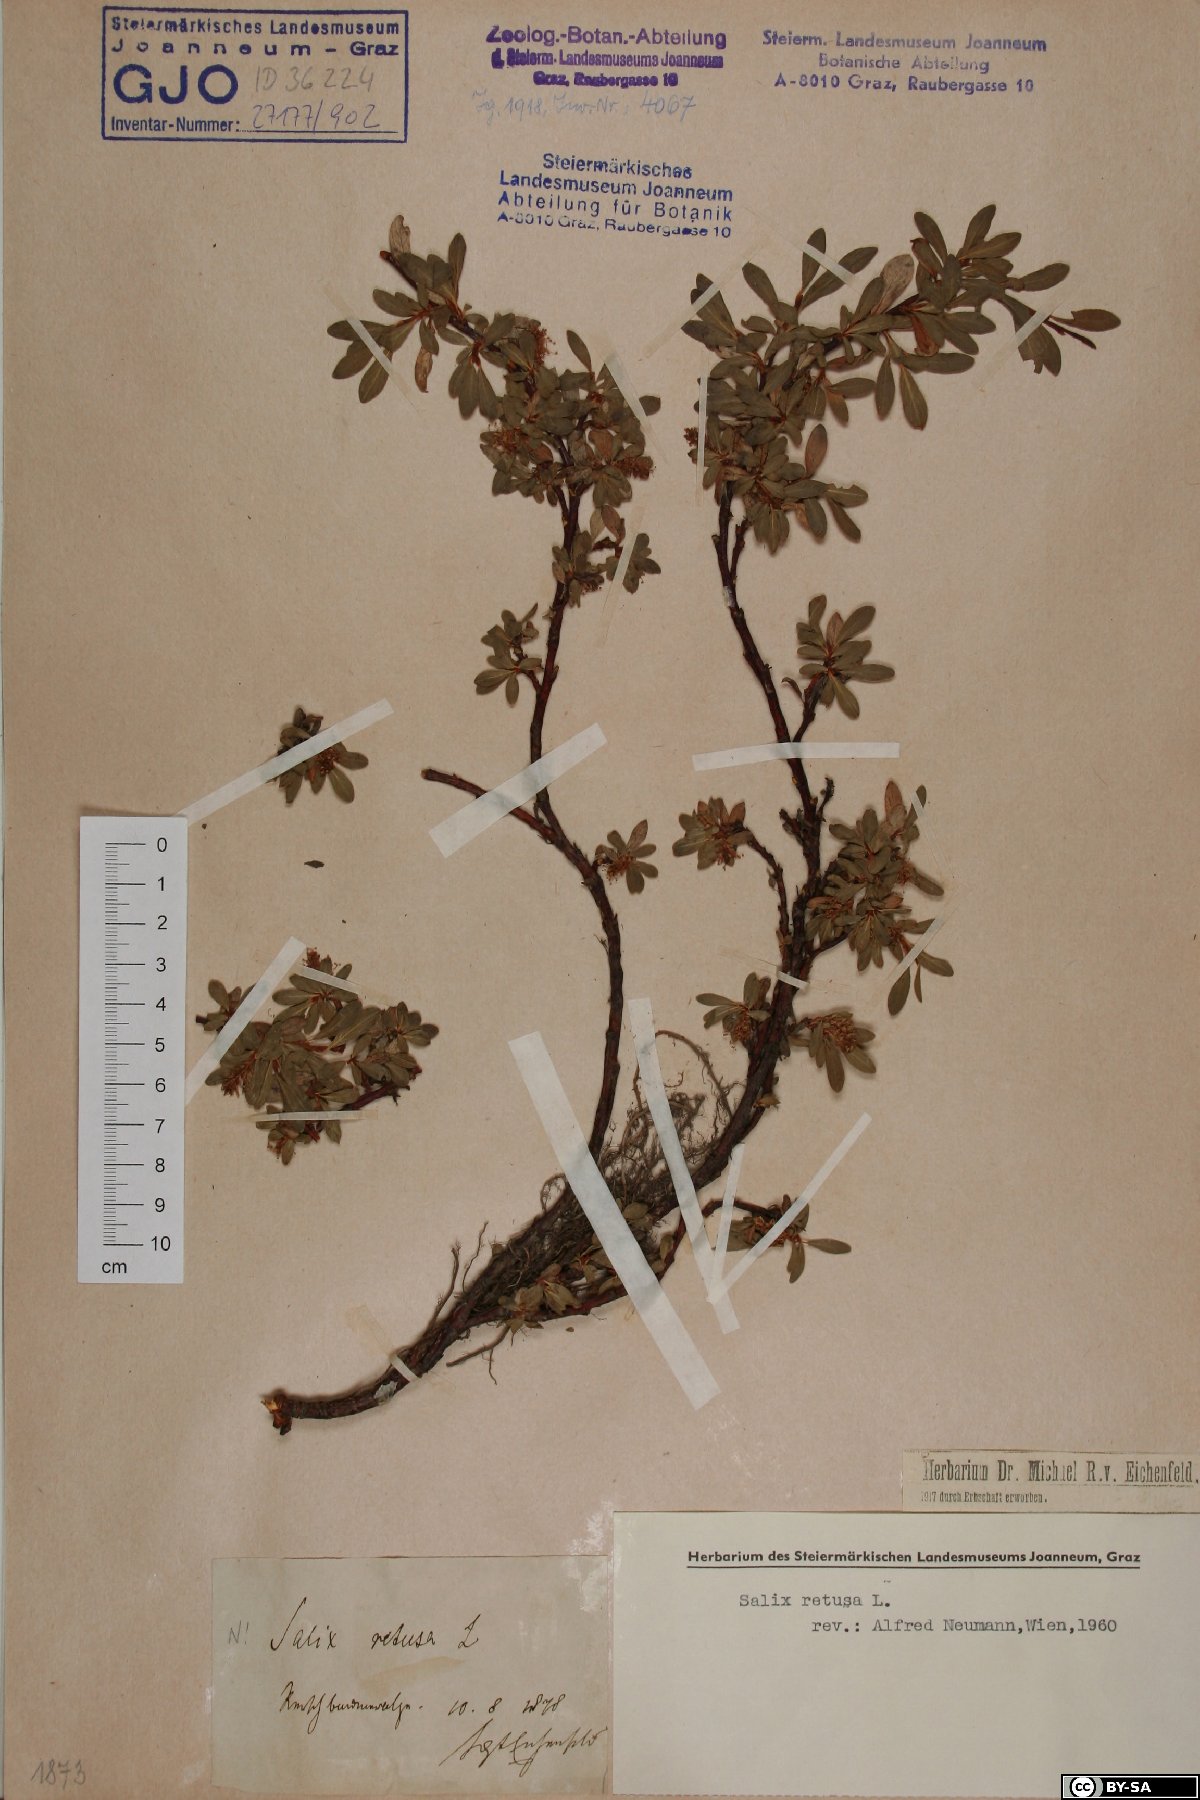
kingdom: Plantae
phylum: Tracheophyta
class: Magnoliopsida
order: Malpighiales
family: Salicaceae
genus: Salix
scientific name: Salix retusa
